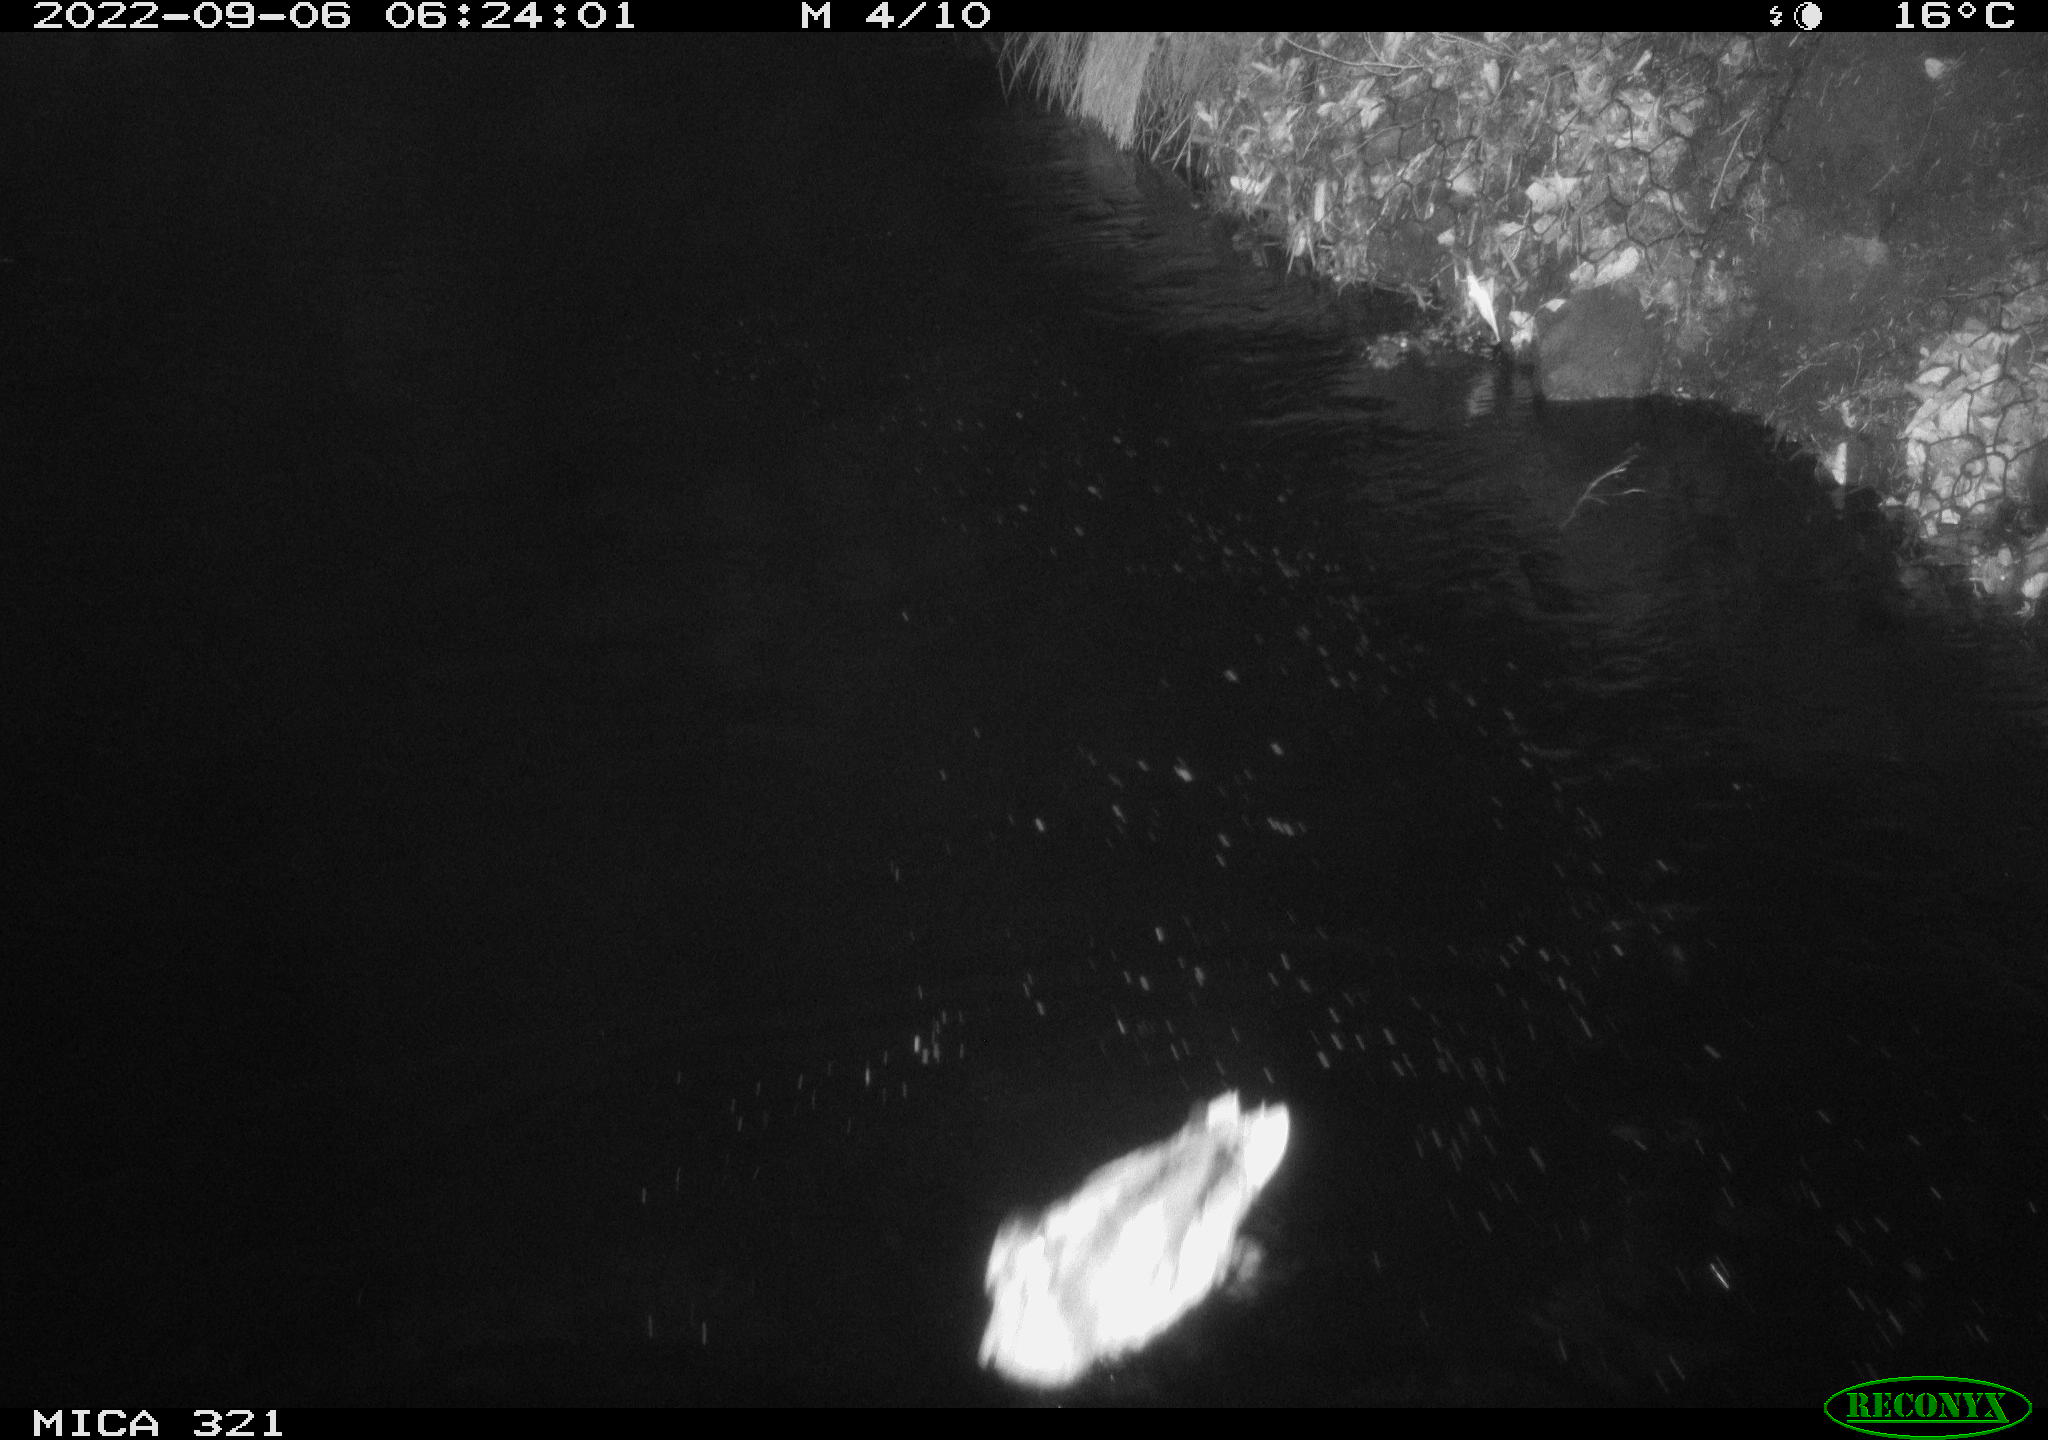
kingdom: Animalia
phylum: Chordata
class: Aves
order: Anseriformes
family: Anatidae
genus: Anas
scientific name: Anas platyrhynchos
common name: Mallard
